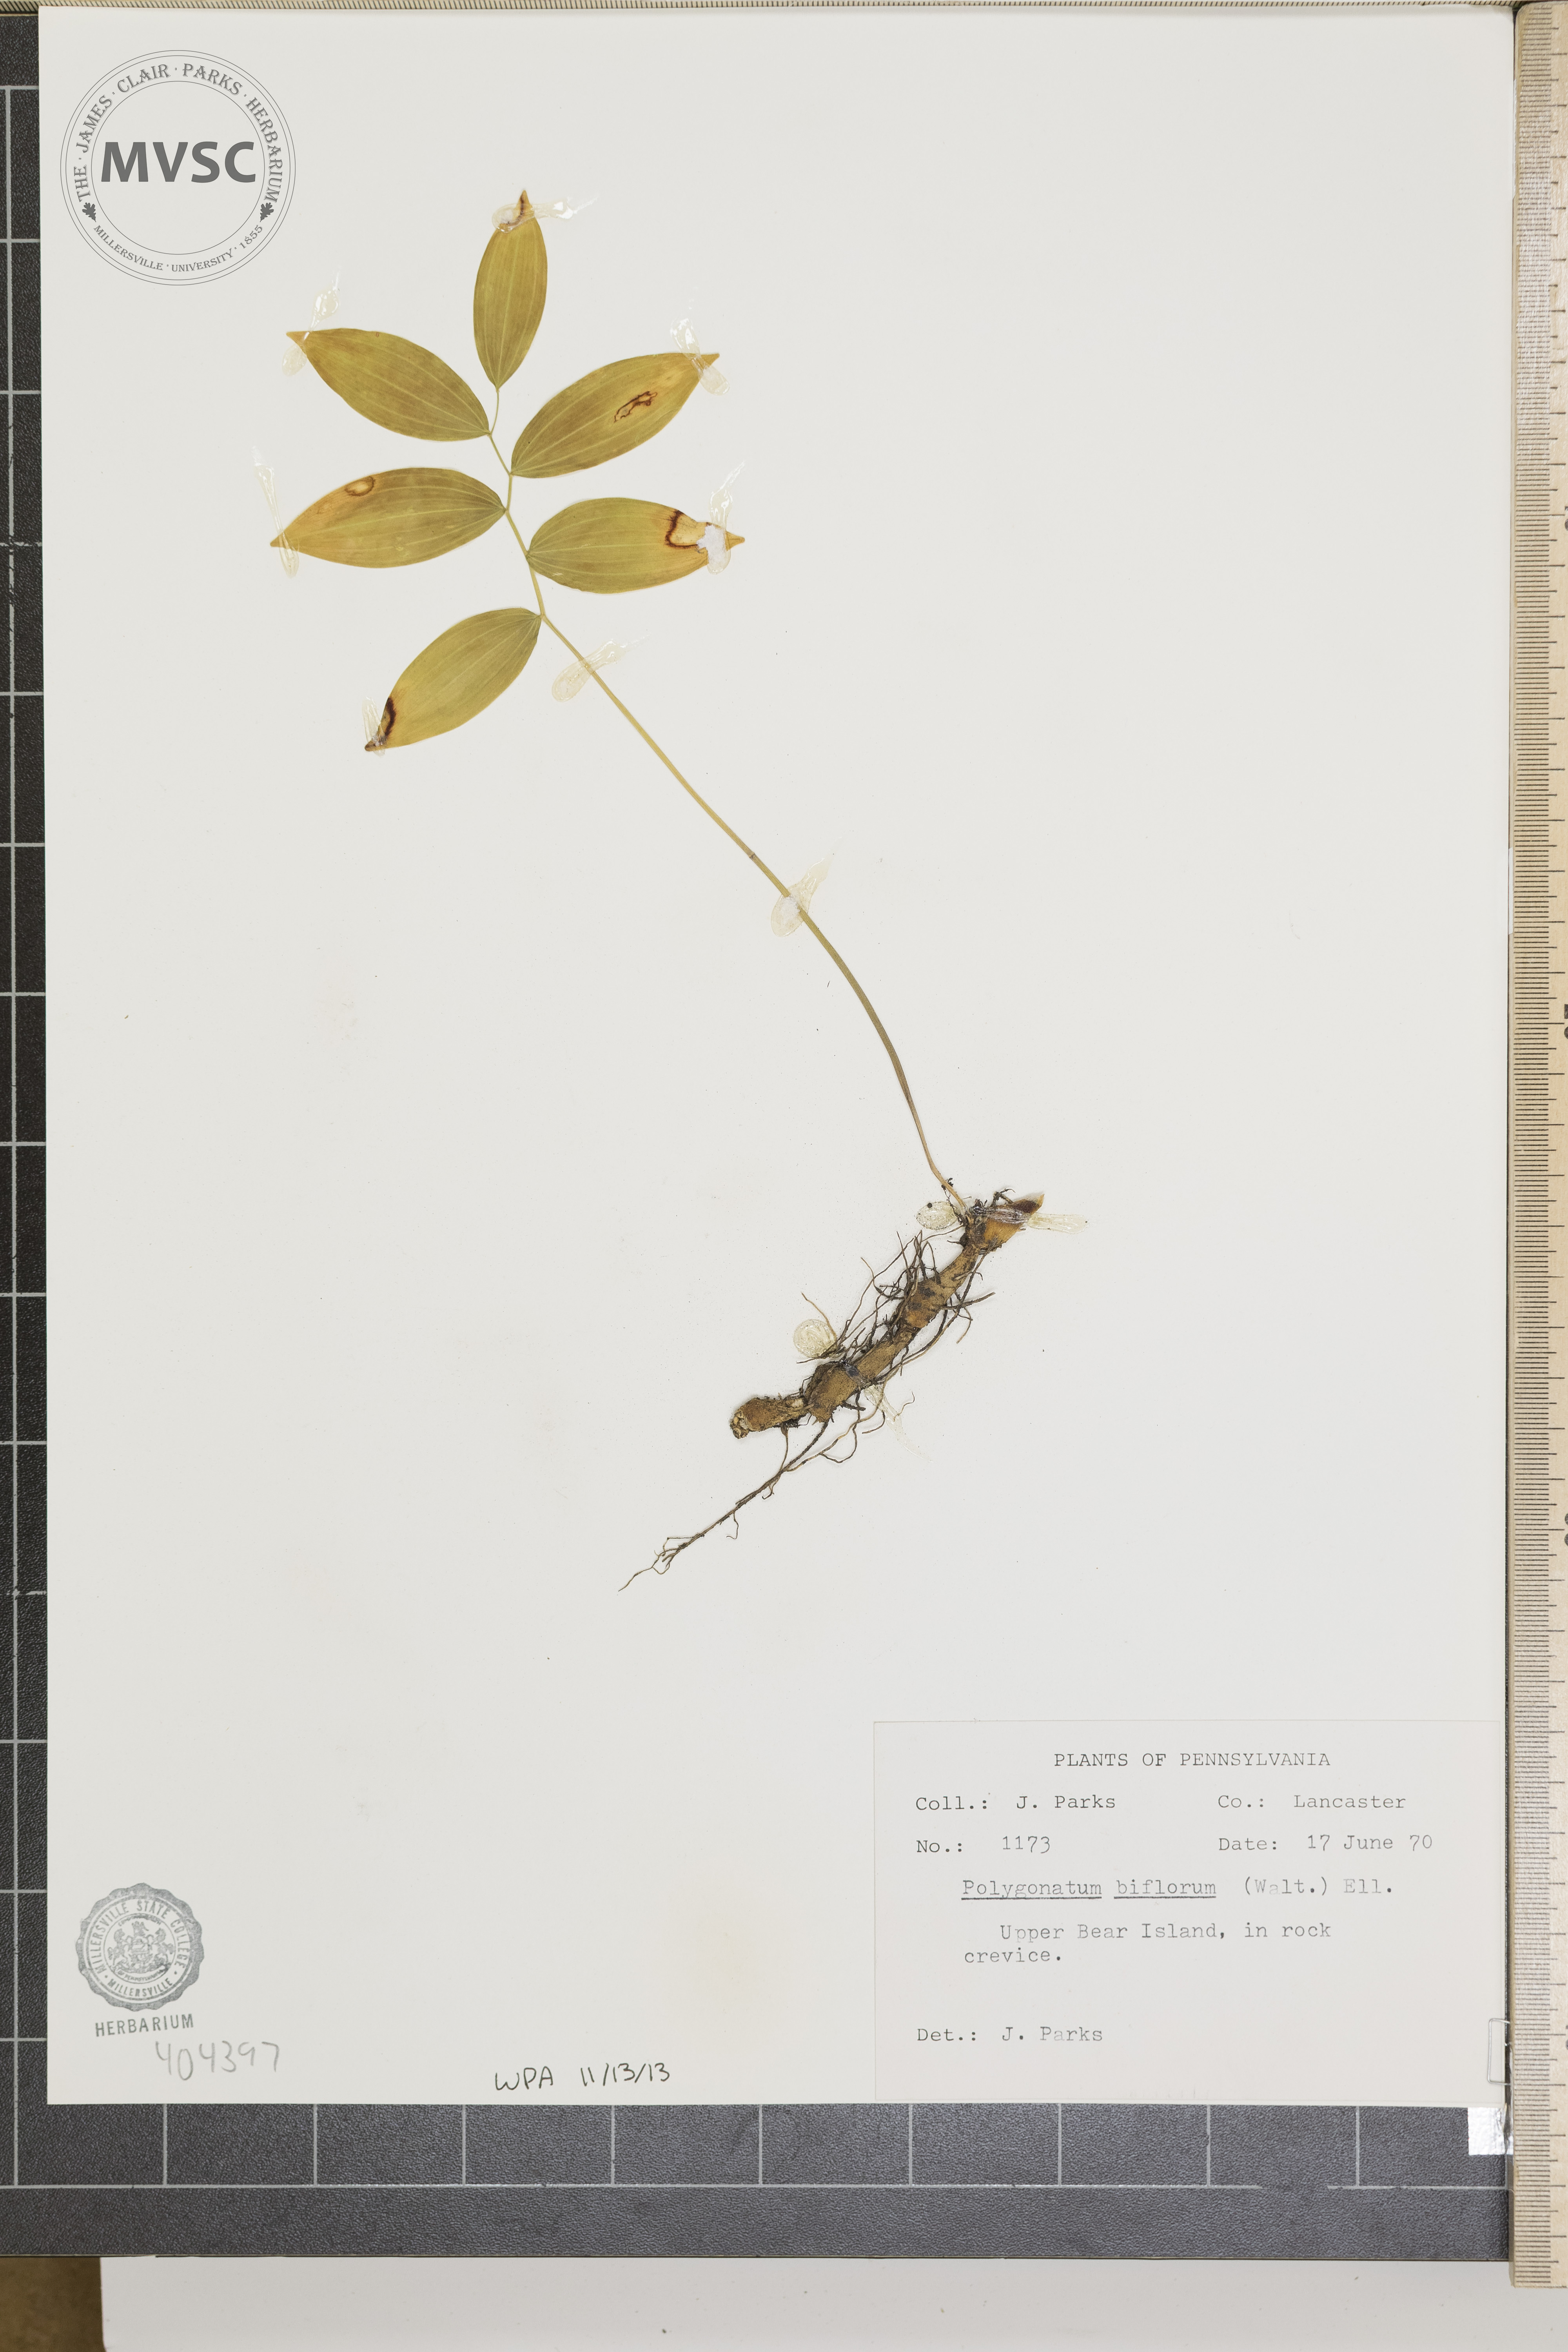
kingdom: Plantae
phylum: Tracheophyta
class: Liliopsida
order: Asparagales
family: Asparagaceae
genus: Polygonatum
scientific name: Polygonatum biflorum
